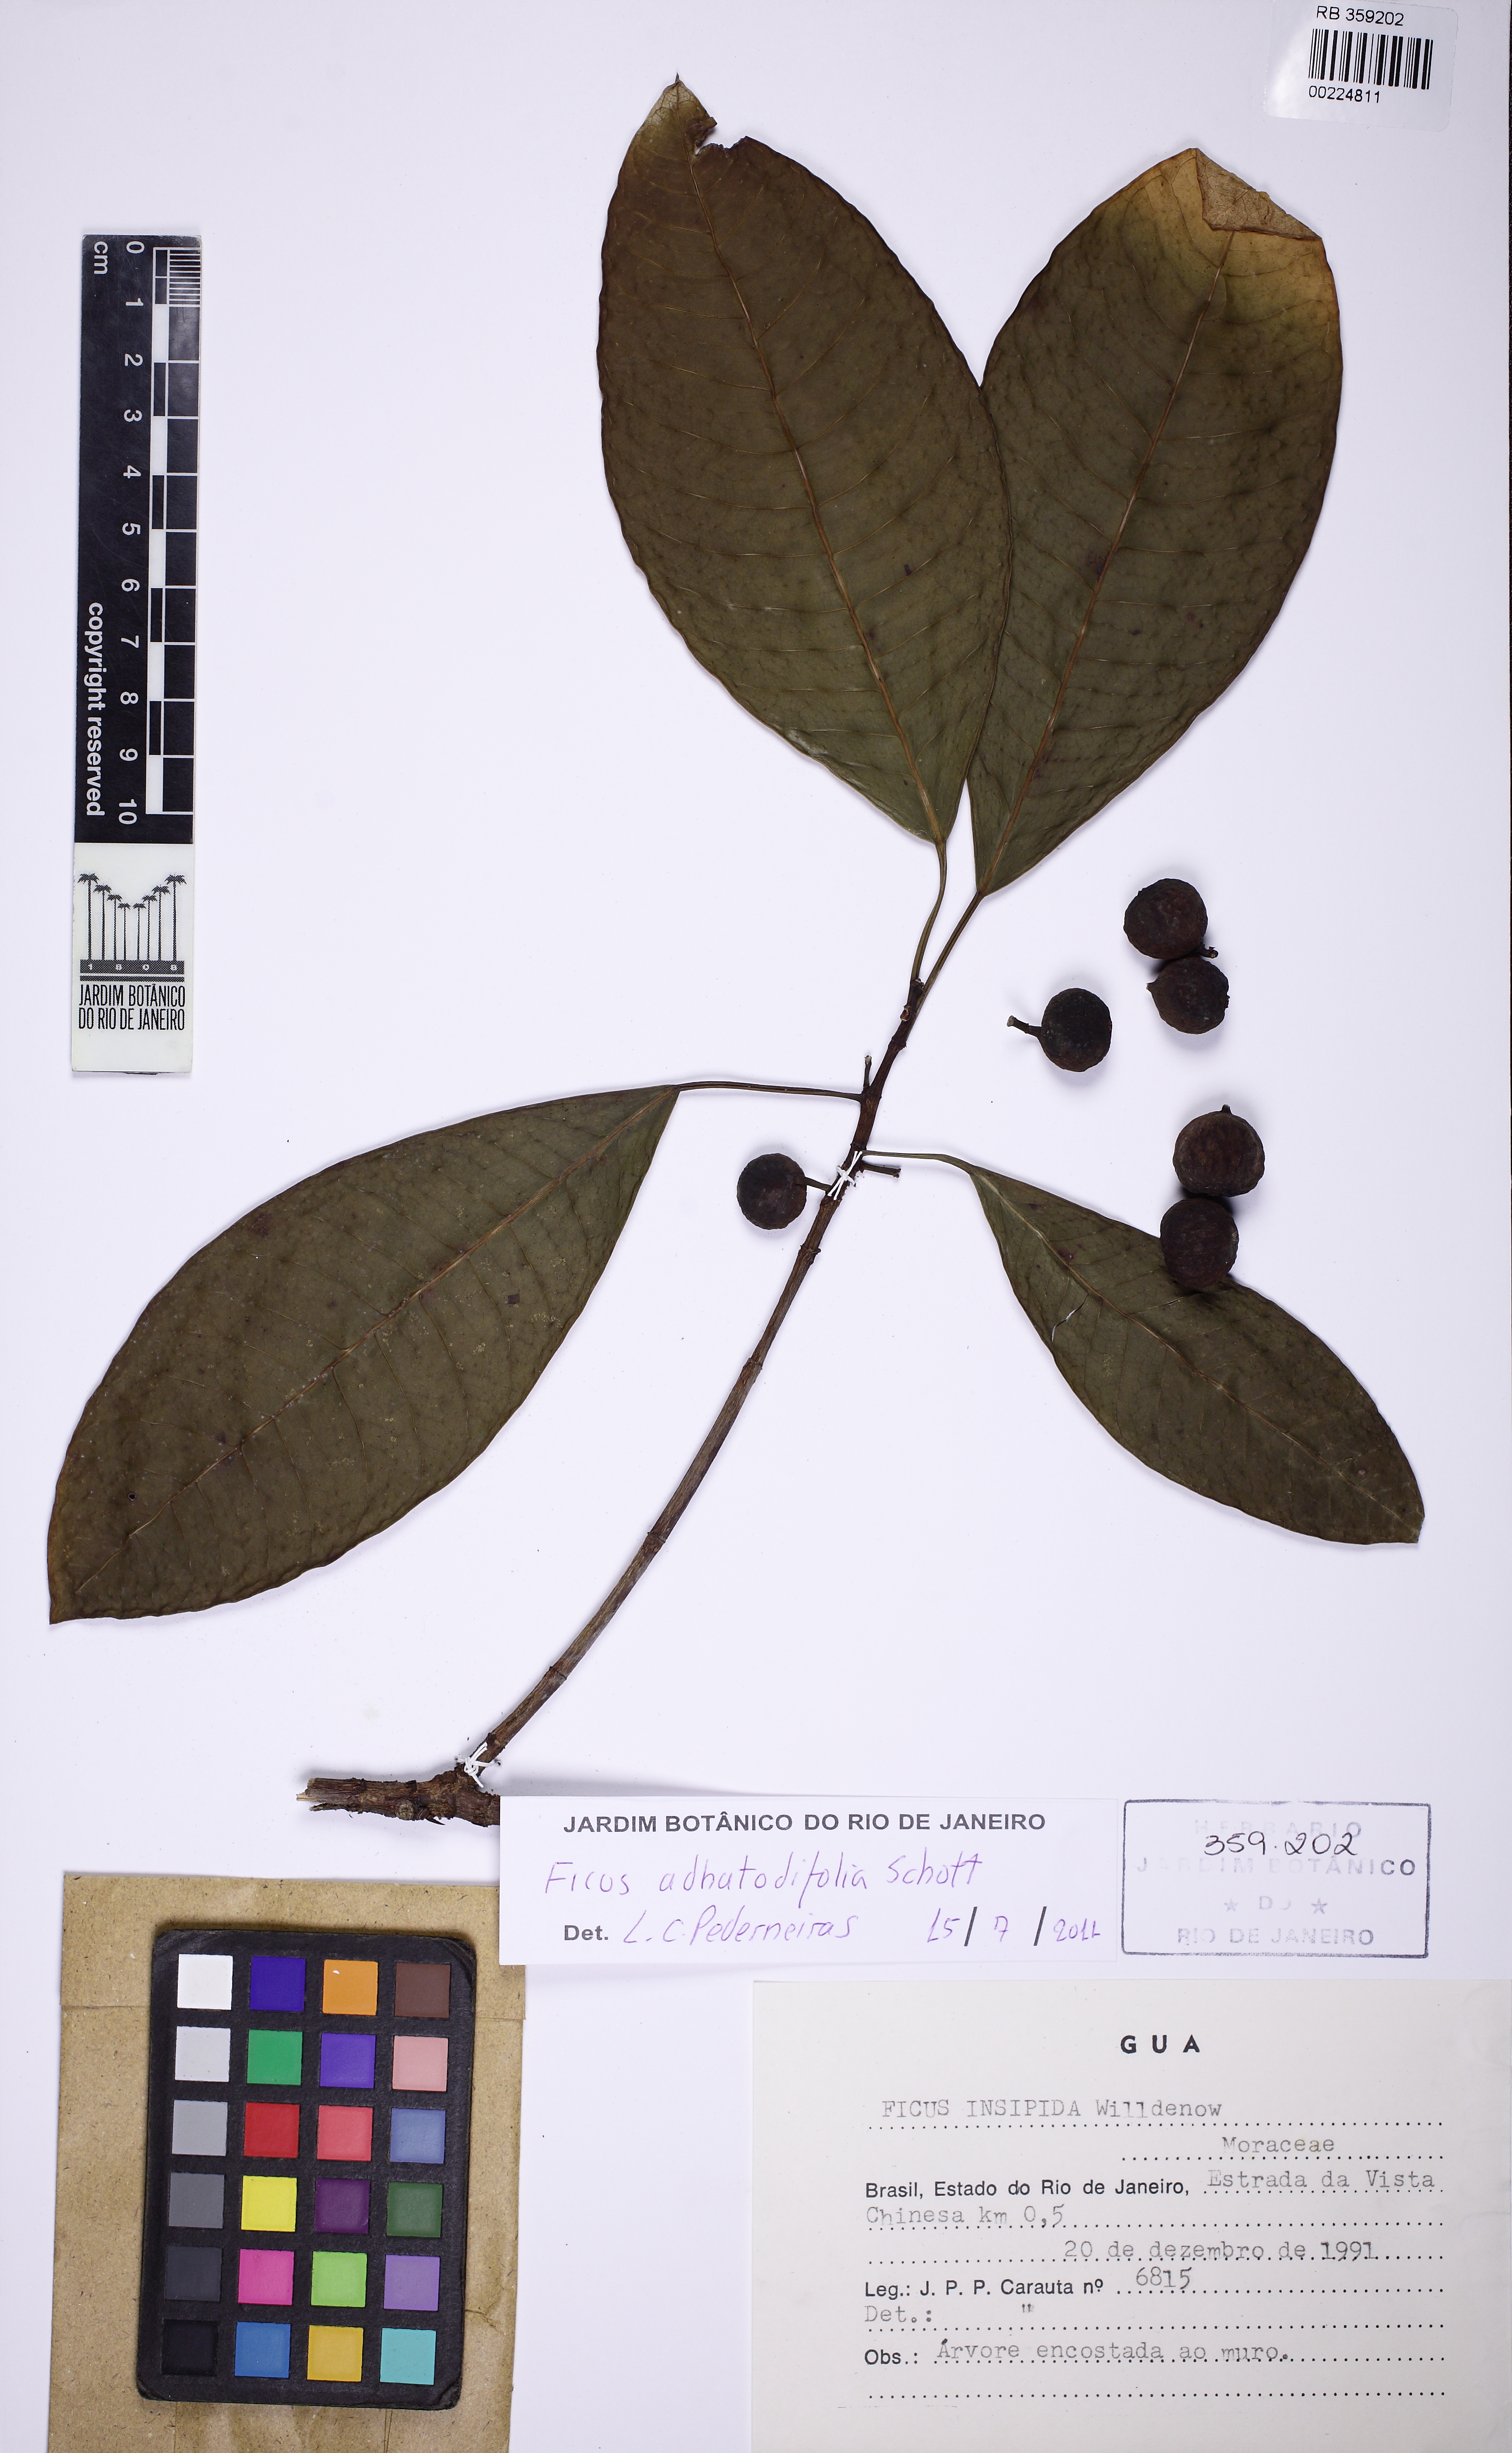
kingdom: Plantae
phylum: Tracheophyta
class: Magnoliopsida
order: Rosales
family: Moraceae
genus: Ficus
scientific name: Ficus adhatodifolia
